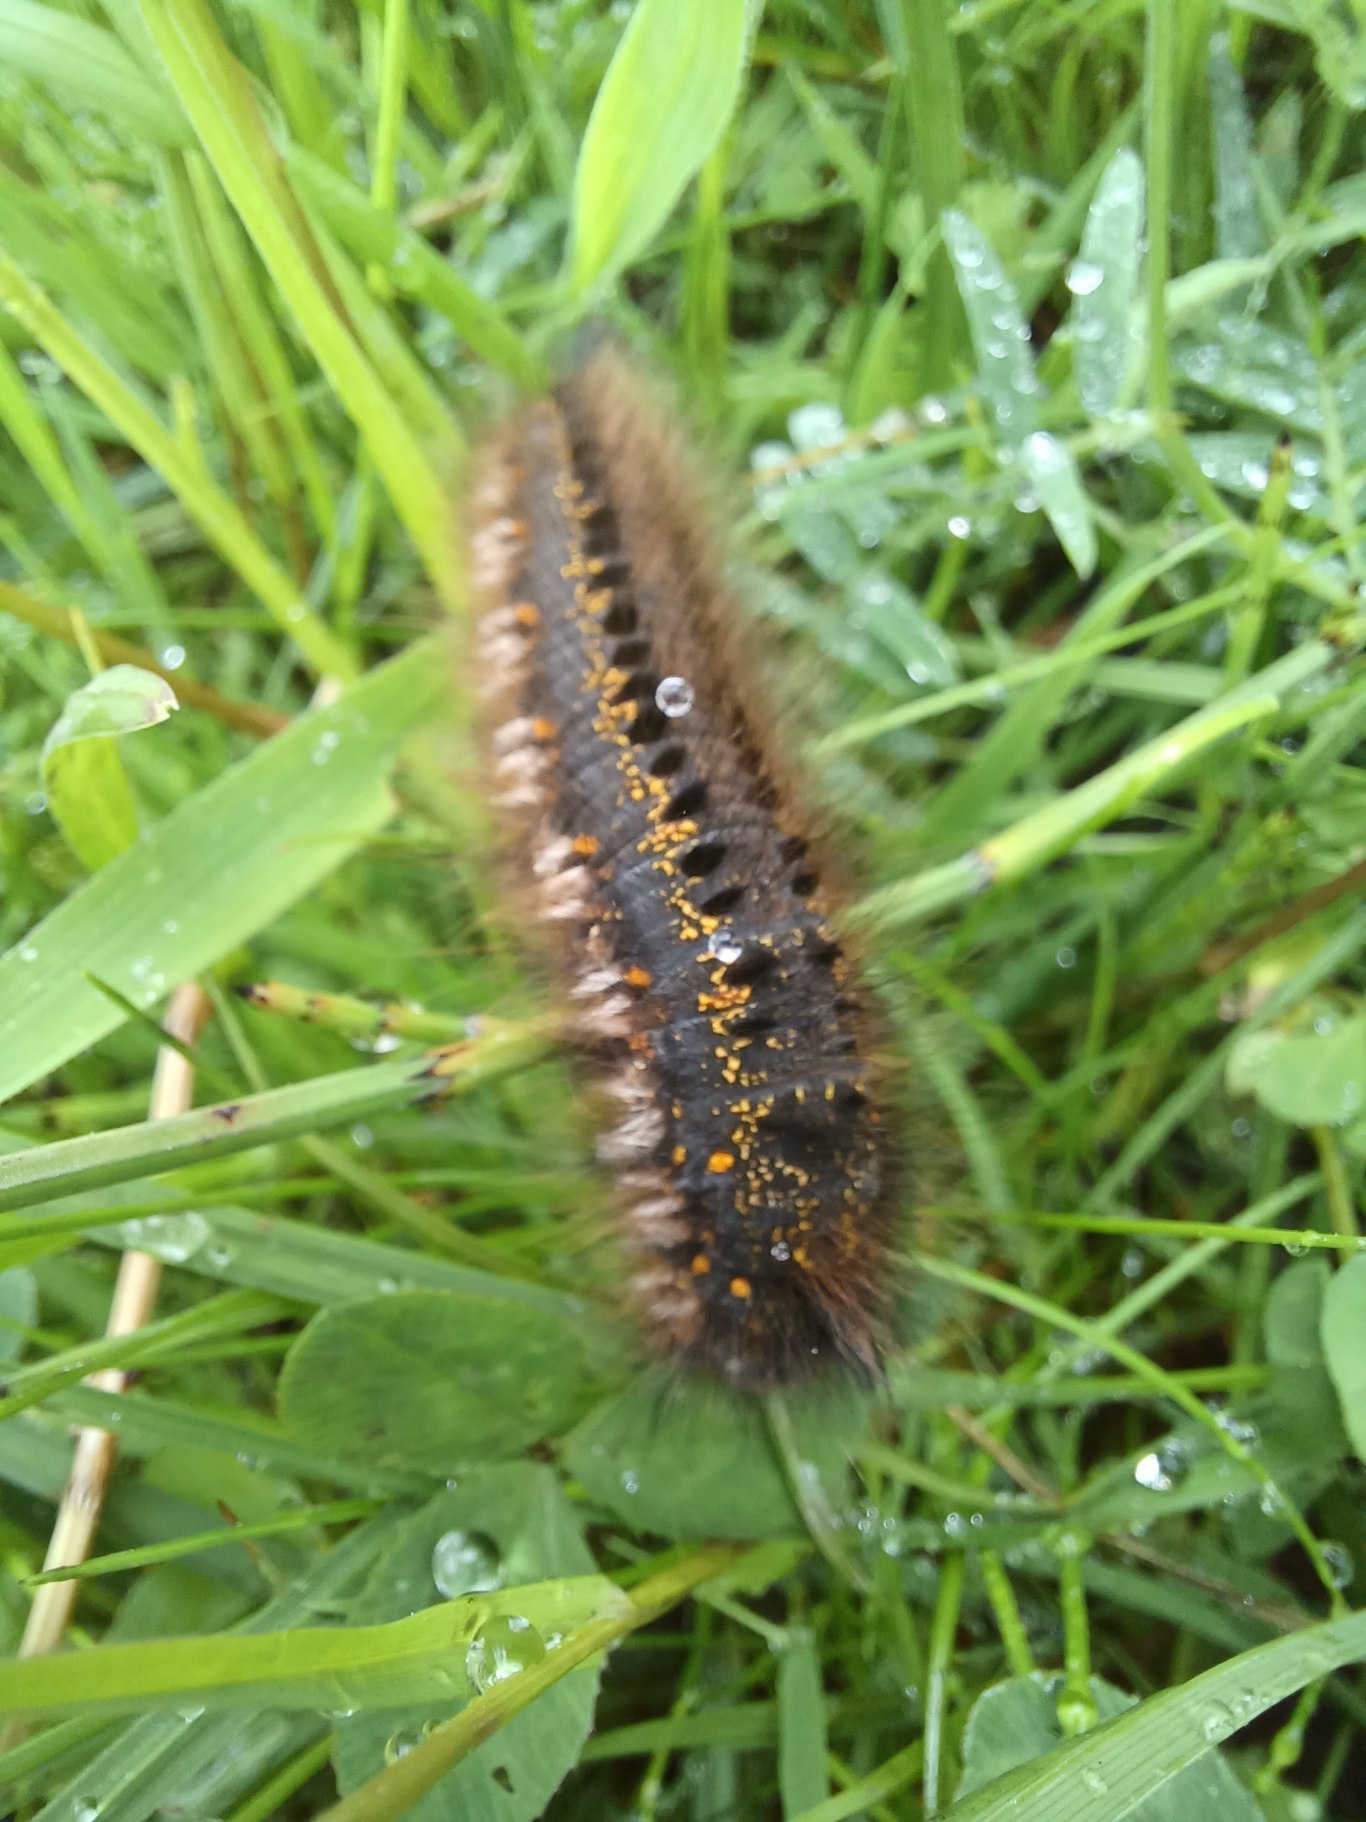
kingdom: Animalia
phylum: Arthropoda
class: Insecta
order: Lepidoptera
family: Lasiocampidae
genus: Euthrix
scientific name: Euthrix potatoria
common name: Græsspinder
